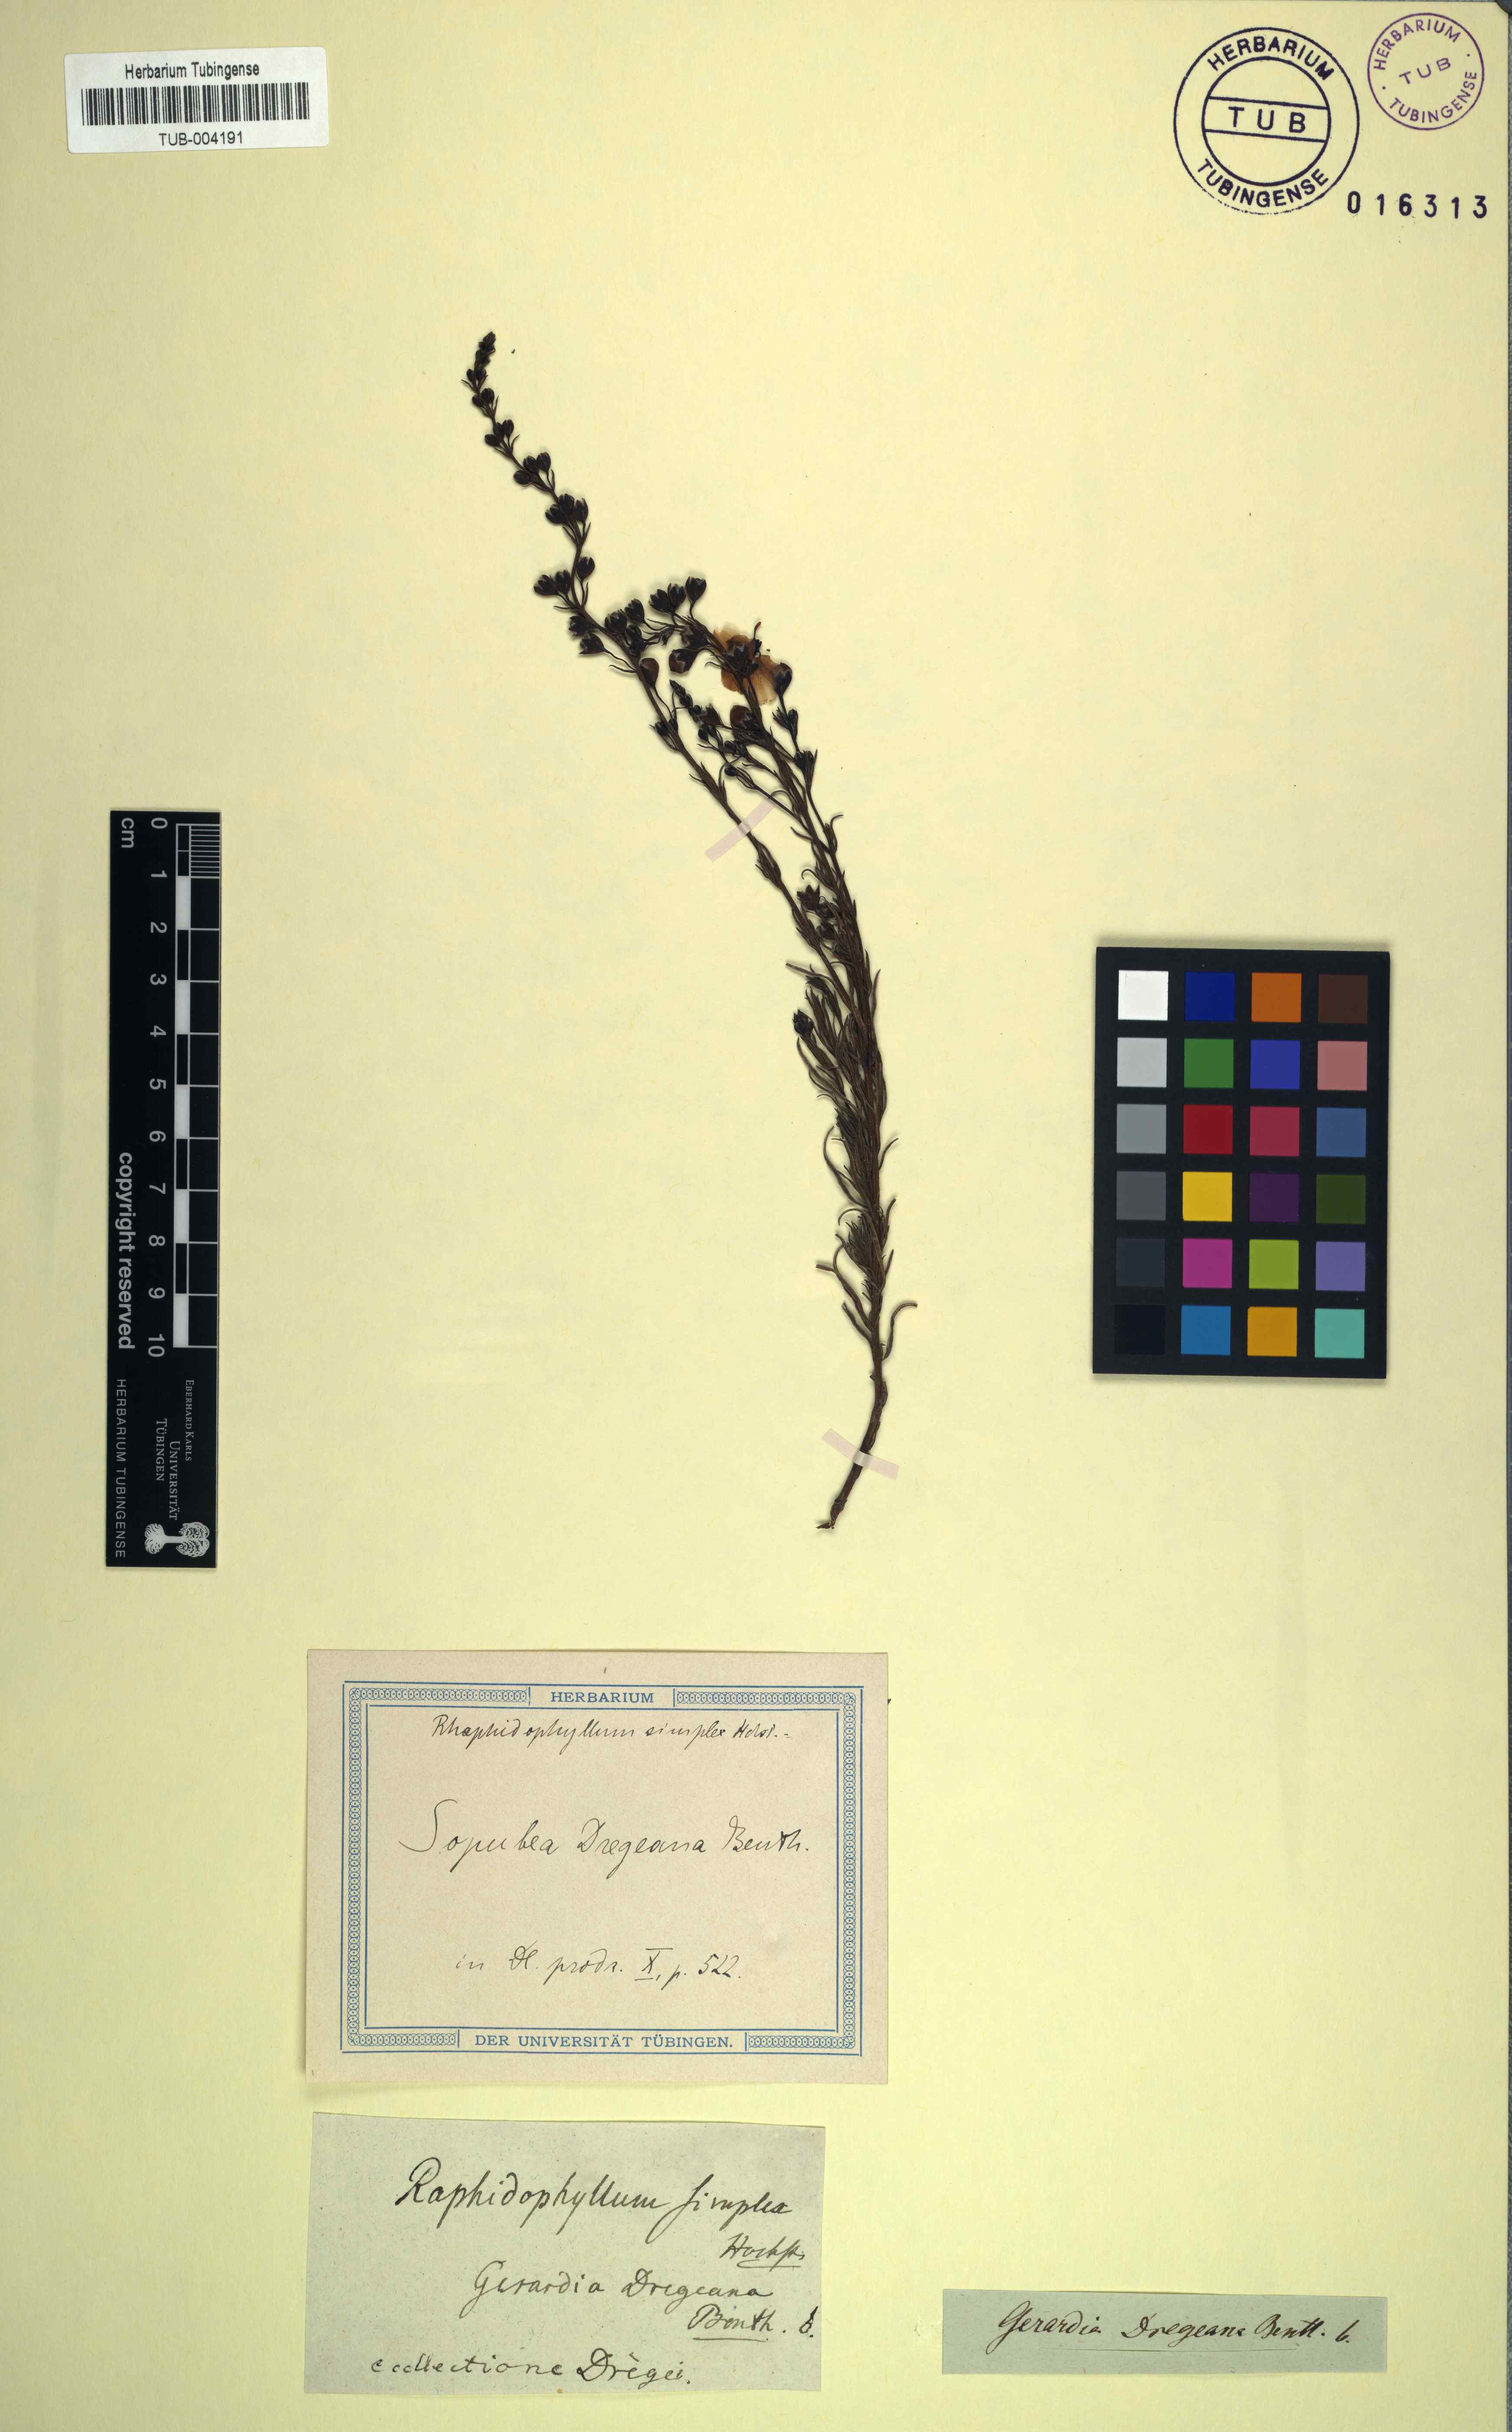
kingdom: Plantae
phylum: Tracheophyta
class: Magnoliopsida
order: Lamiales
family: Orobanchaceae
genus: Sopubia
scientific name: Sopubia simplex
